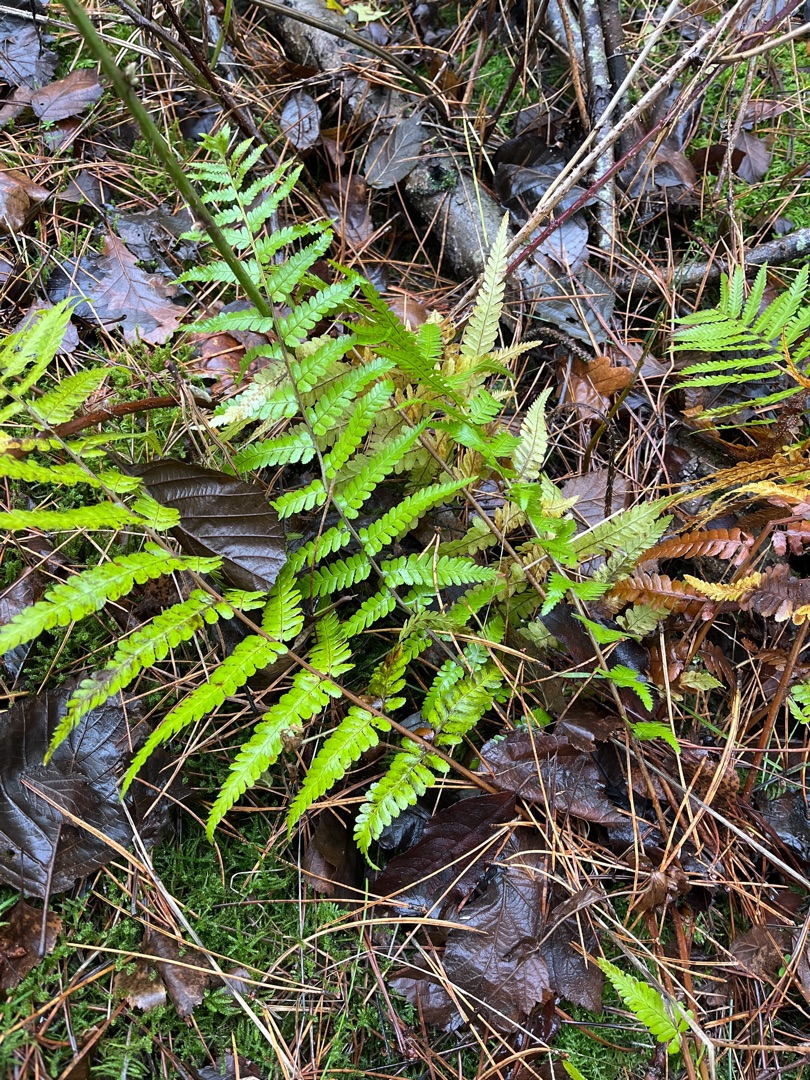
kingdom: Plantae
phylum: Tracheophyta
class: Polypodiopsida
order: Polypodiales
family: Dryopteridaceae
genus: Dryopteris
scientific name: Dryopteris filix-mas
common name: Almindelig mangeløv
